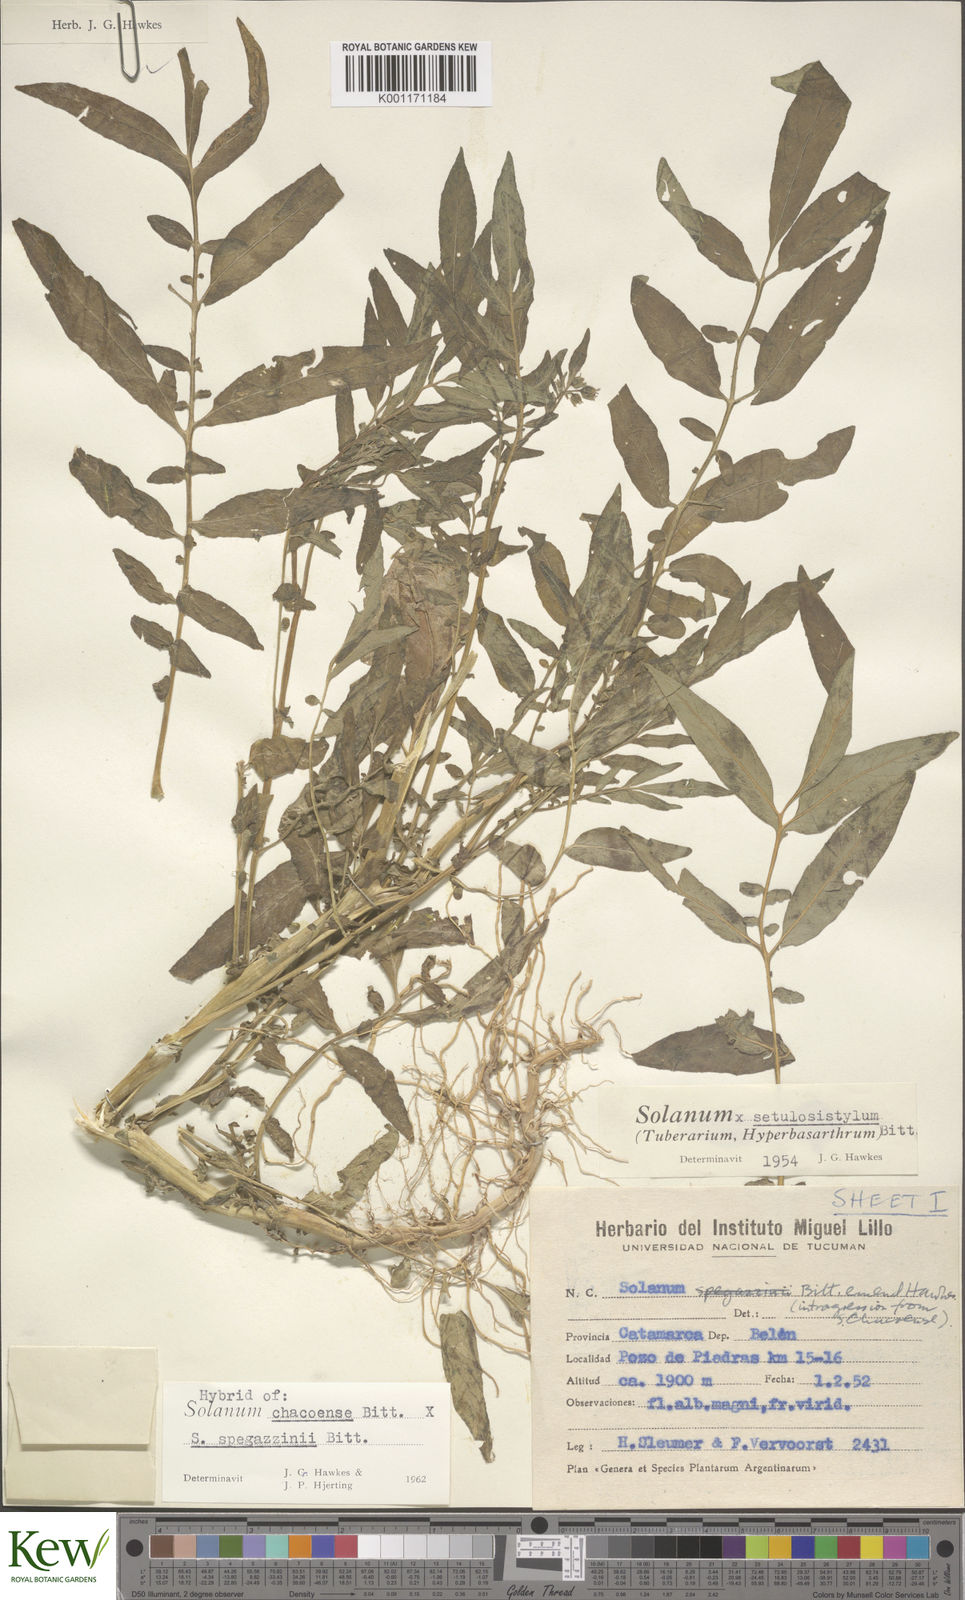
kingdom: Plantae
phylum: Tracheophyta
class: Magnoliopsida
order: Solanales
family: Solanaceae
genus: Solanum
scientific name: Solanum chacoense
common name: Chaco potato
